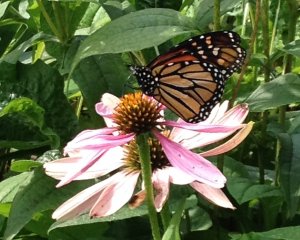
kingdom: Animalia
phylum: Arthropoda
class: Insecta
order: Lepidoptera
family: Nymphalidae
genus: Danaus
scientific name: Danaus plexippus
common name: Monarch
